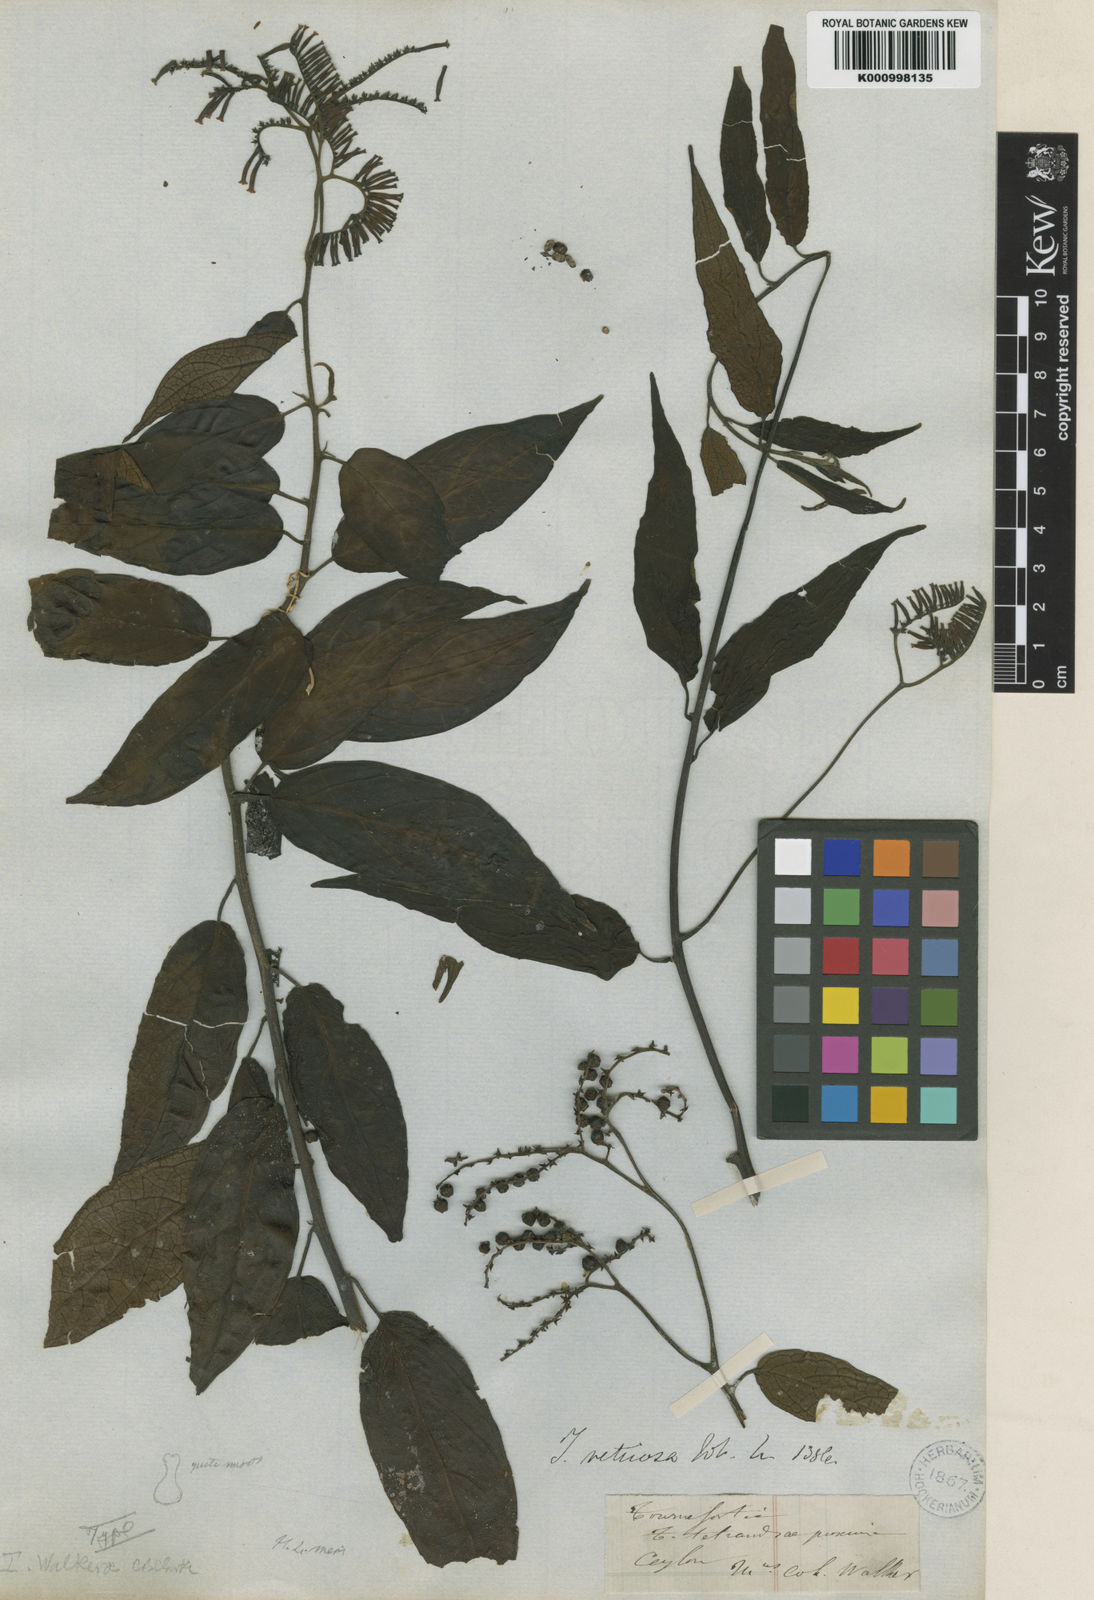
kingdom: Plantae
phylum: Tracheophyta
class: Magnoliopsida
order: Boraginales
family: Heliotropiaceae
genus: Tournefortia
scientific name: Tournefortia walkerae
